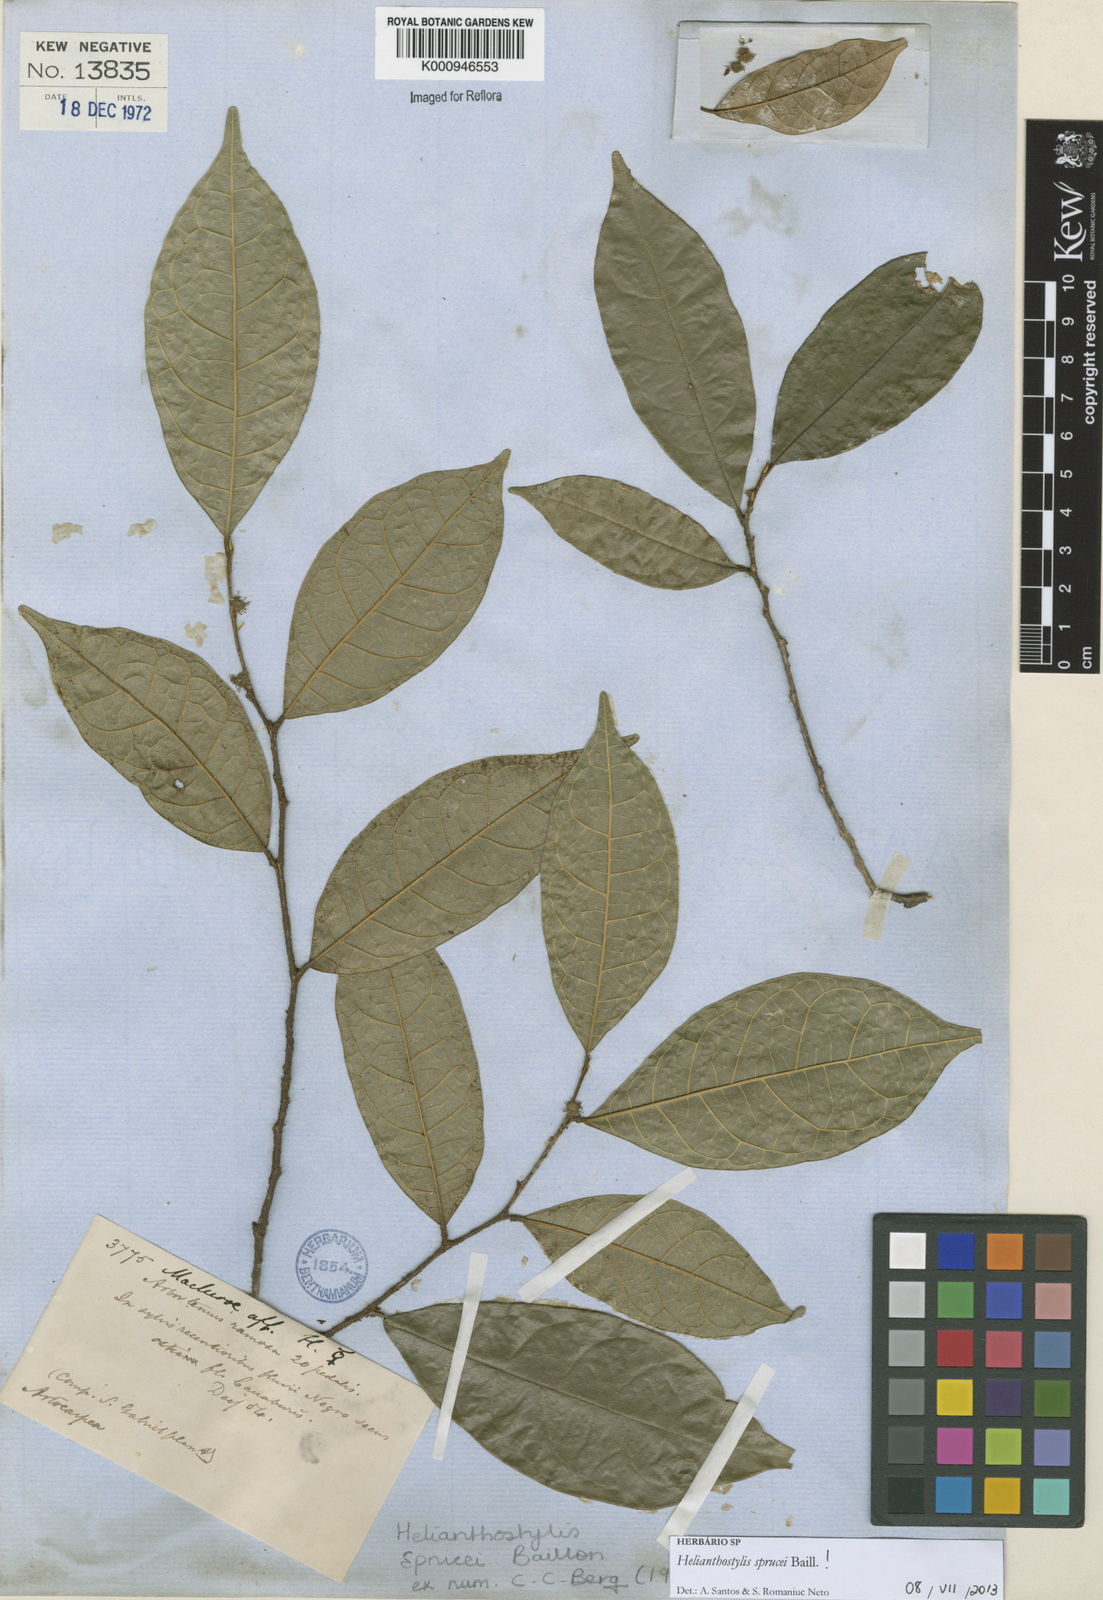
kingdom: Plantae
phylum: Tracheophyta
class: Magnoliopsida
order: Rosales
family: Moraceae
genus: Brosimum
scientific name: Brosimum sprucei
